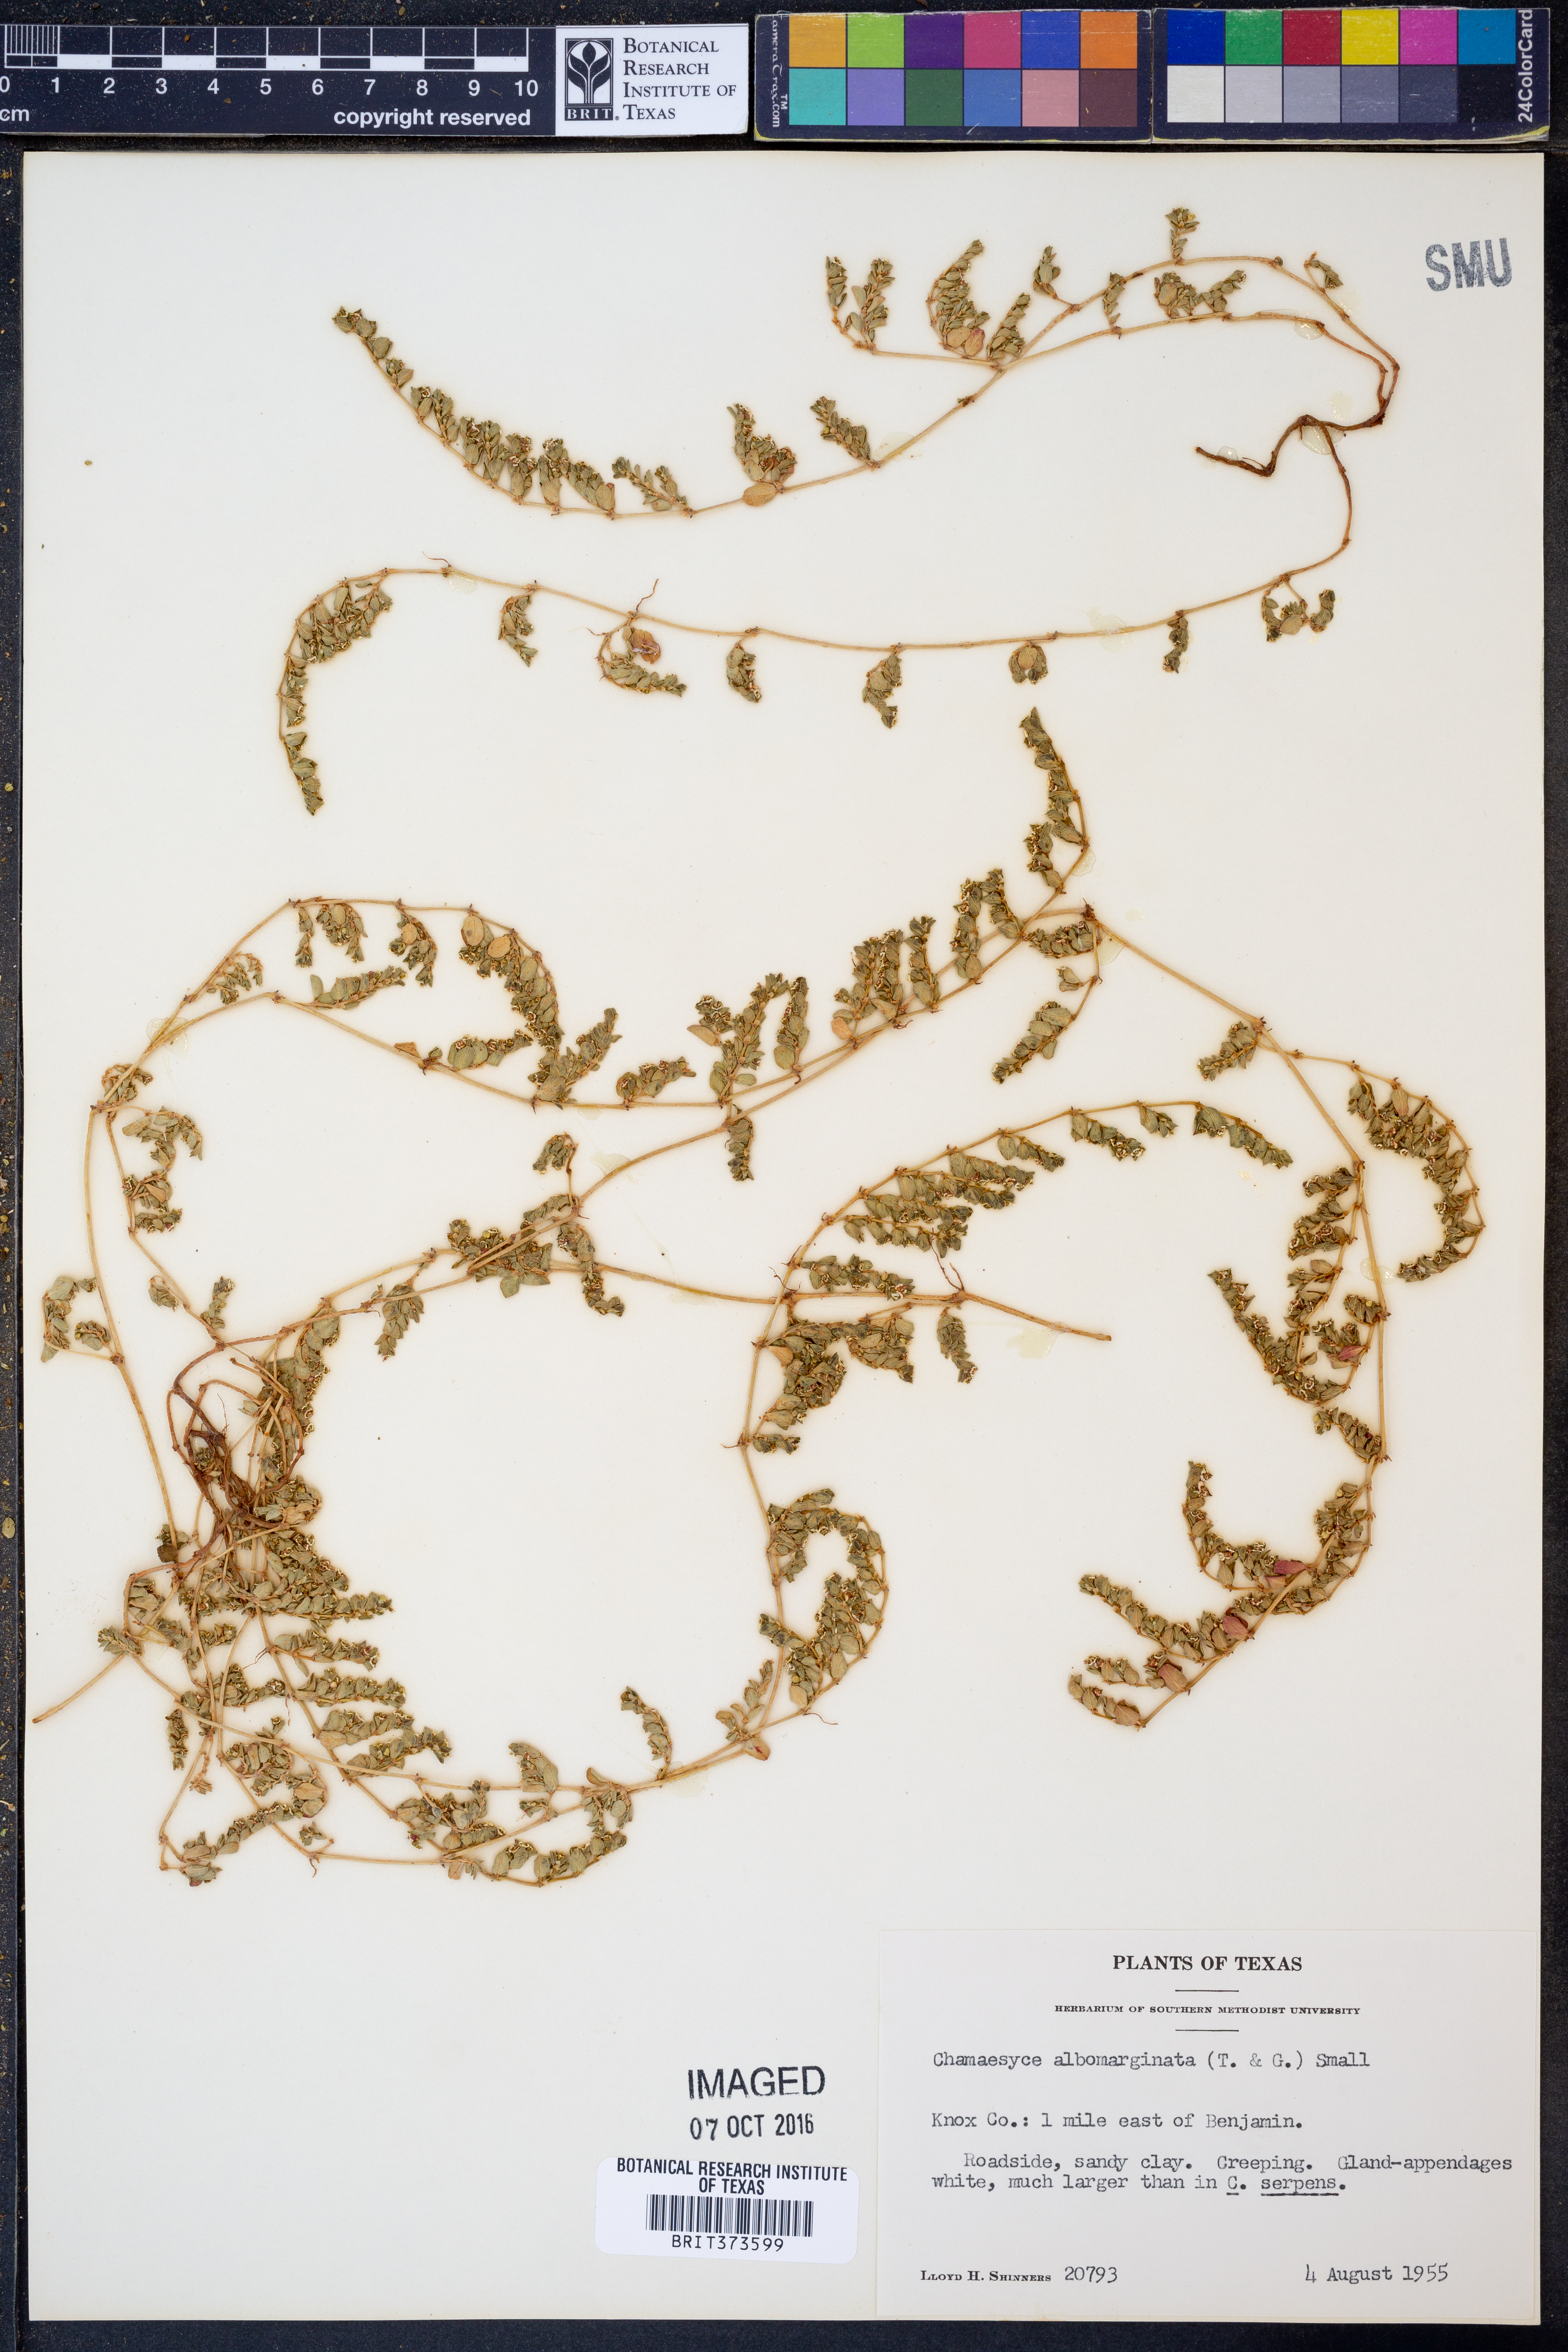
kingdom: Plantae
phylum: Tracheophyta
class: Magnoliopsida
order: Malpighiales
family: Euphorbiaceae
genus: Euphorbia
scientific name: Euphorbia albomarginata
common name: Whitemargin sandmat
